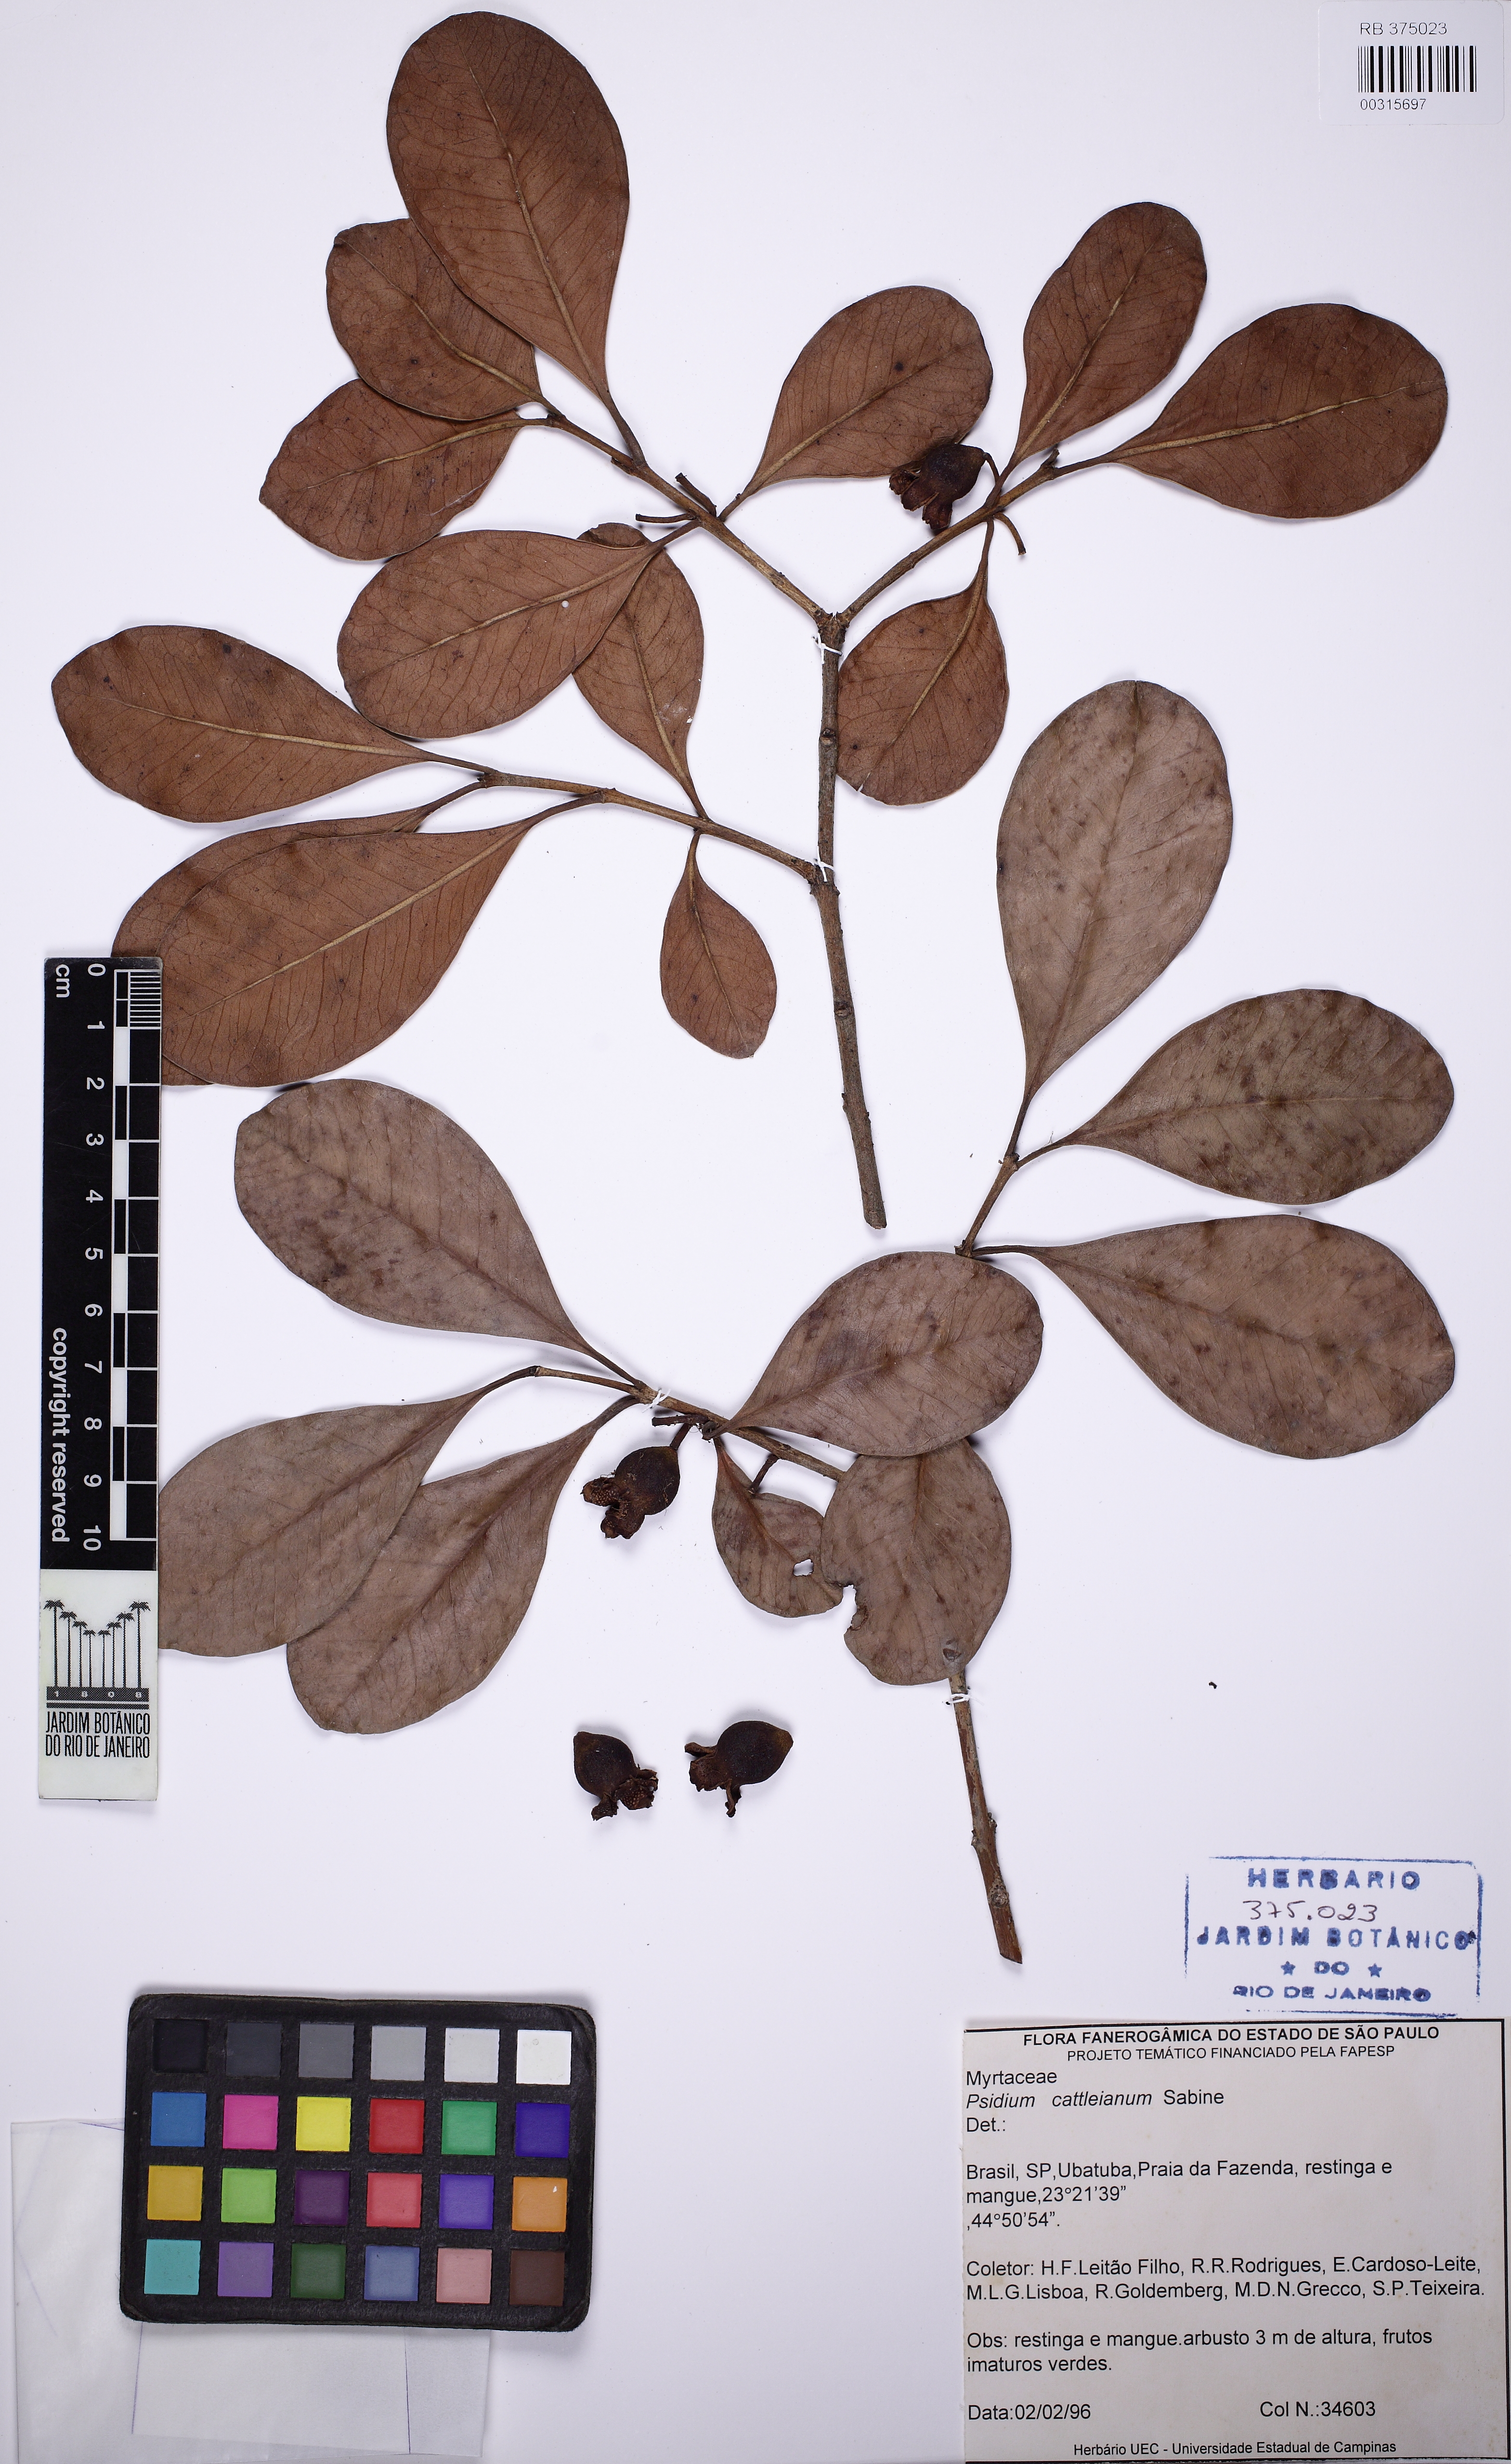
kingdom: Plantae
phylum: Tracheophyta
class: Magnoliopsida
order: Myrtales
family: Myrtaceae
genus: Psidium
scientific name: Psidium cattleianum
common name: Strawberry guava
